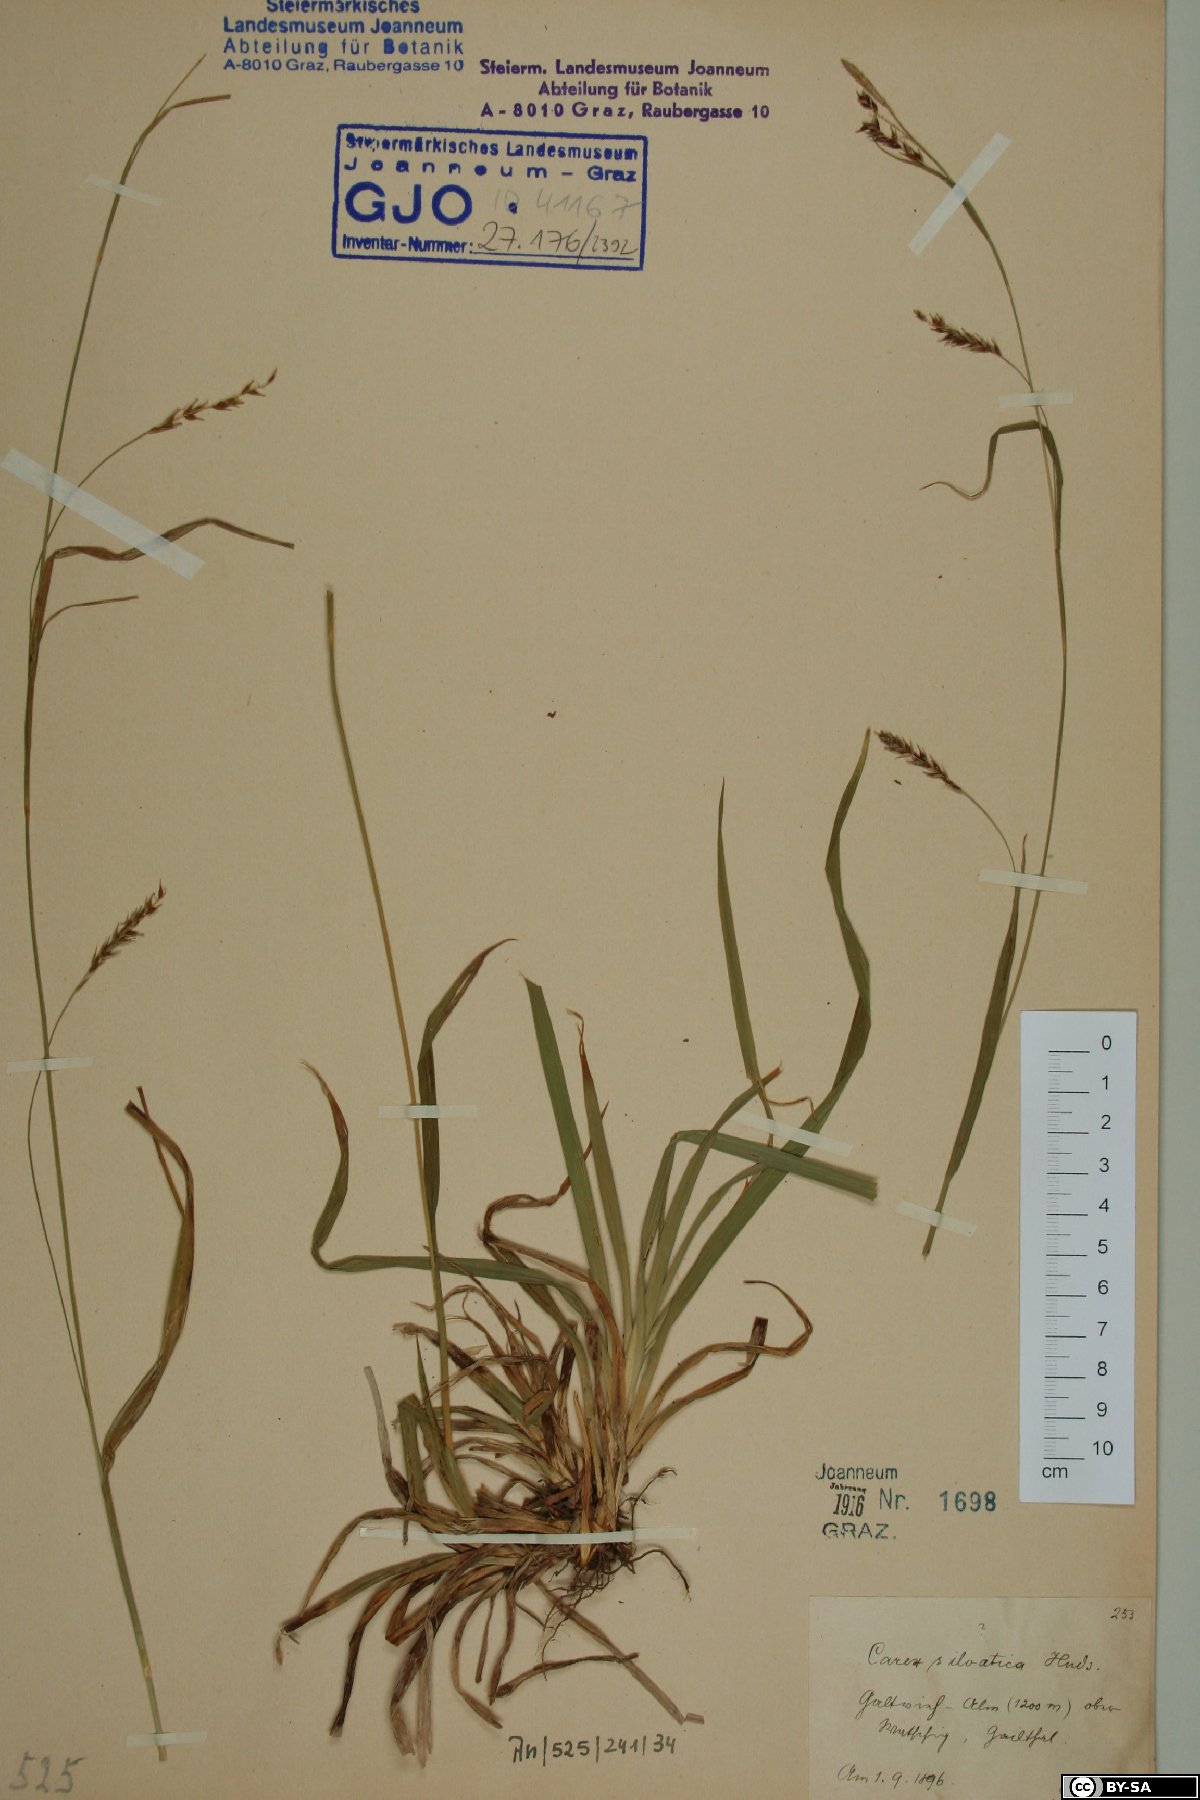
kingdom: Plantae
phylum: Tracheophyta
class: Liliopsida
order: Poales
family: Cyperaceae
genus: Carex
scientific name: Carex sylvatica
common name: Wood-sedge
